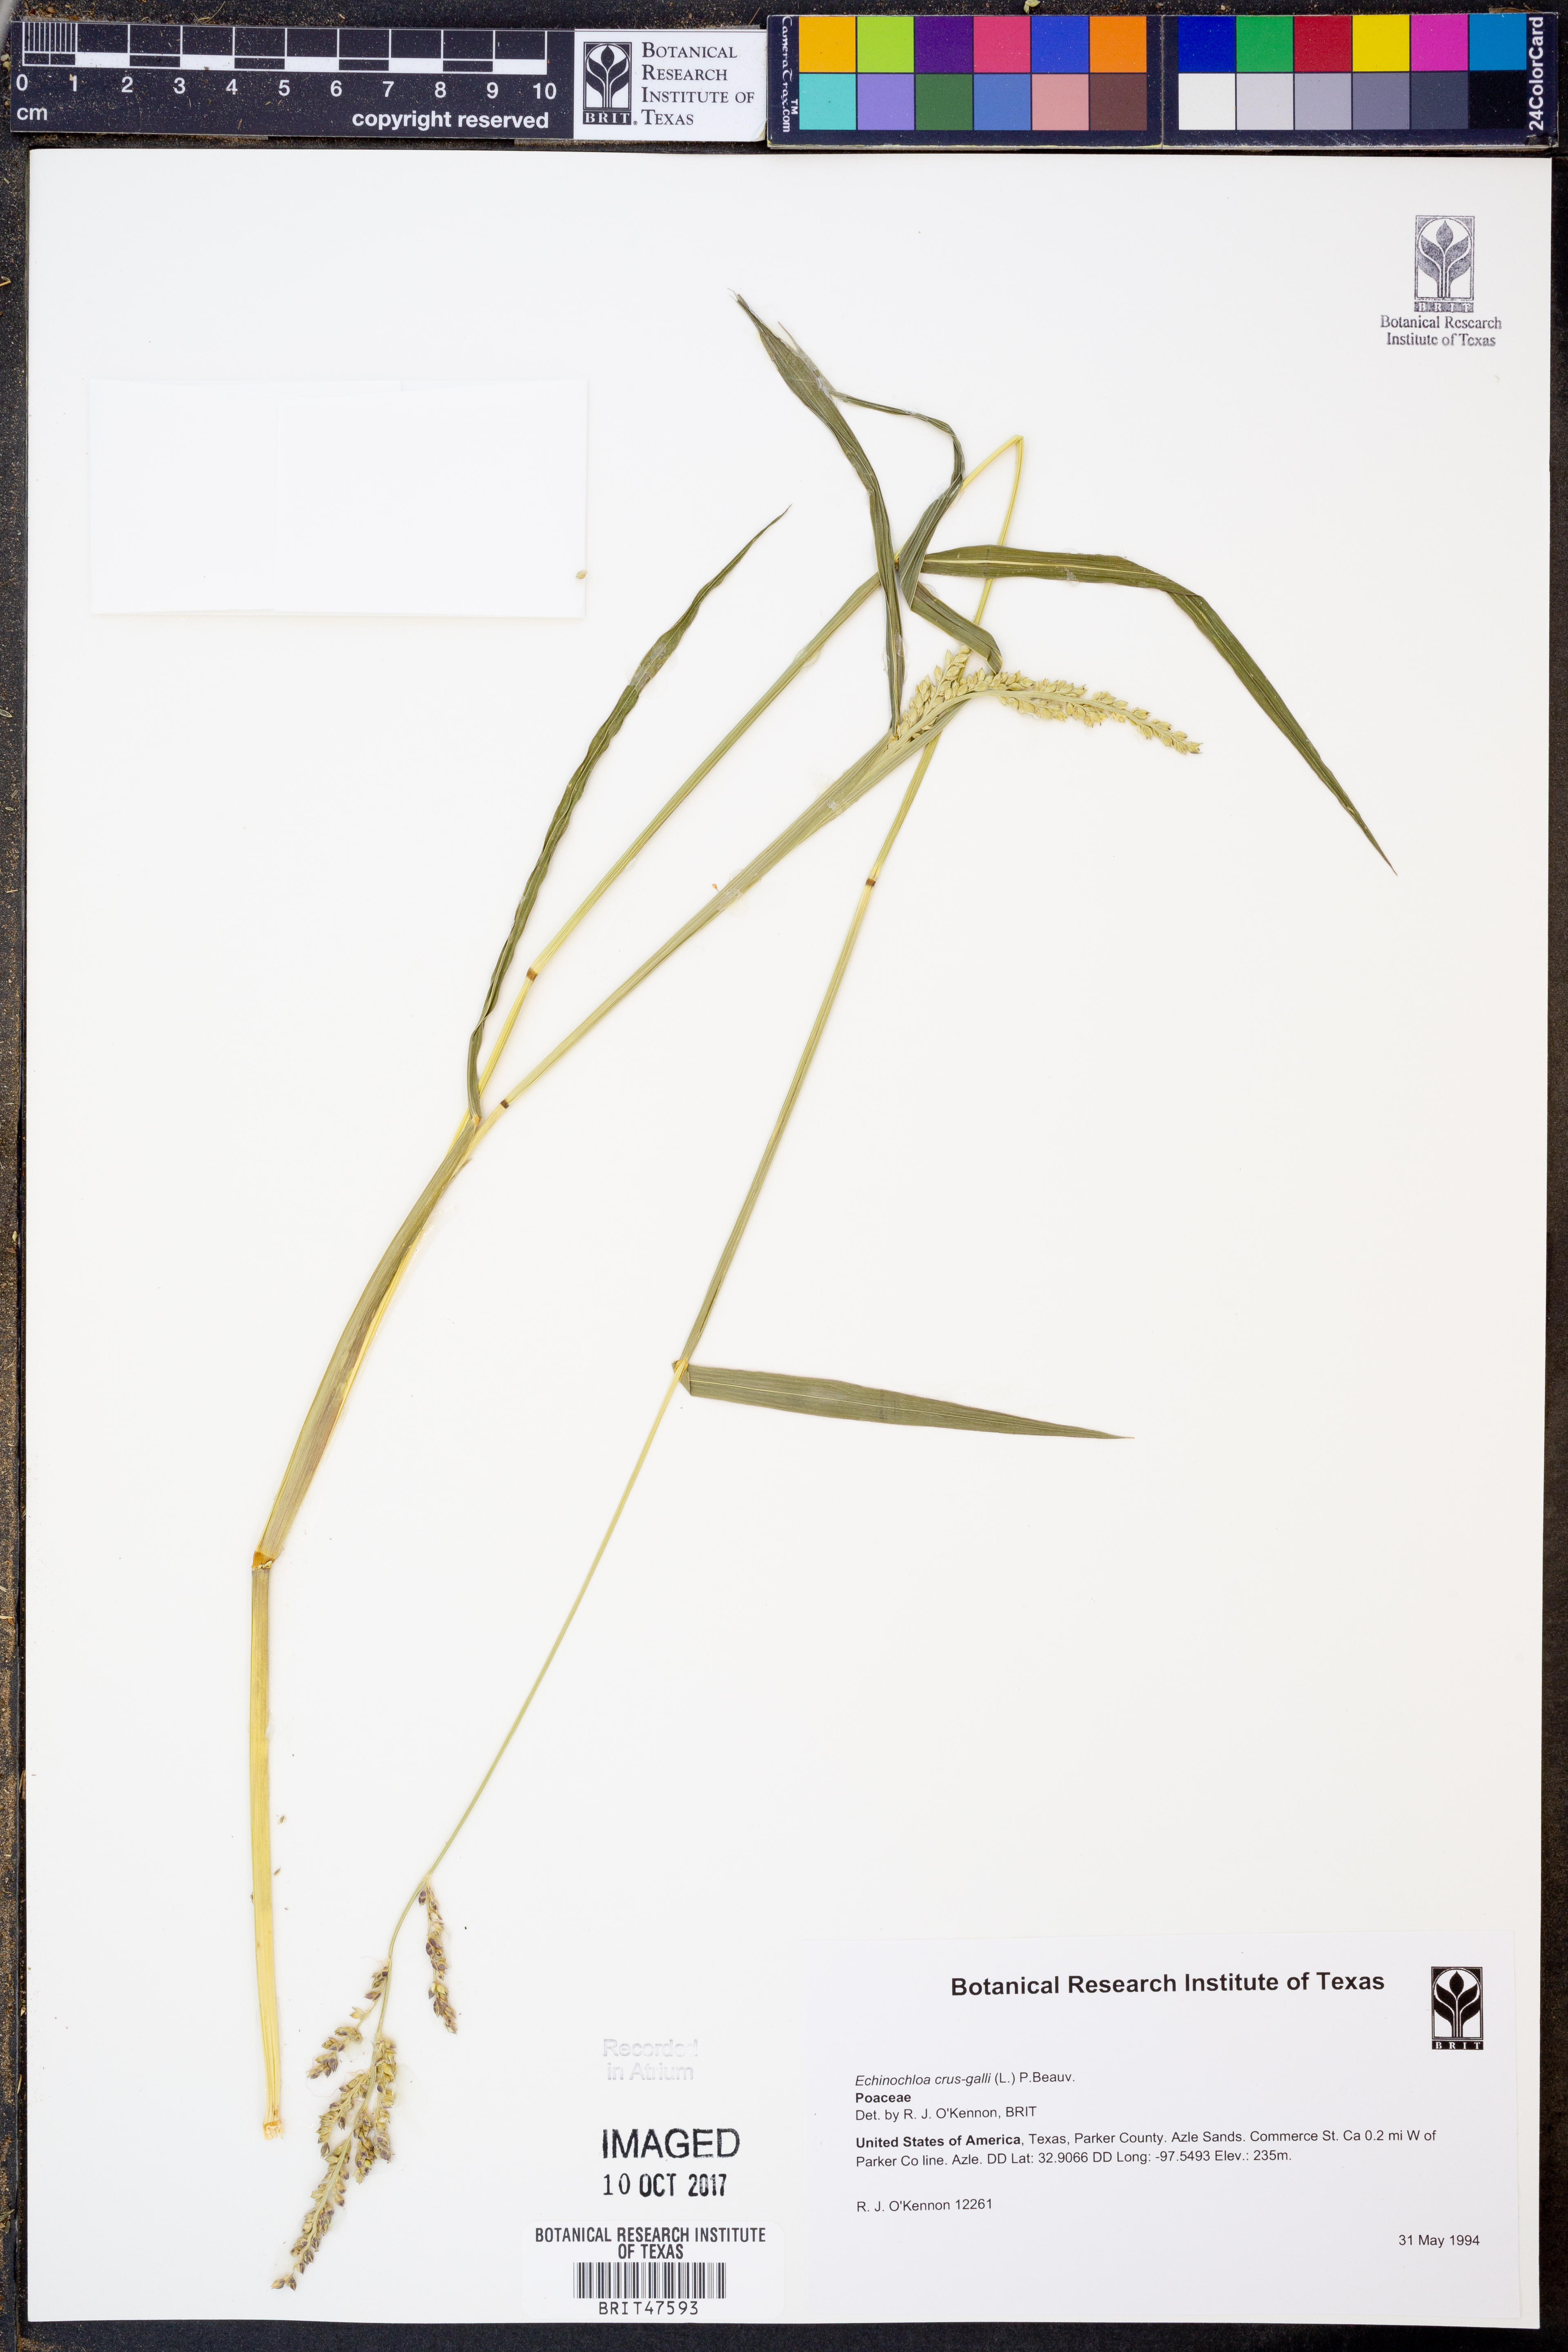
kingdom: Plantae
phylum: Tracheophyta
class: Liliopsida
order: Poales
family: Poaceae
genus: Echinochloa
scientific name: Echinochloa crus-galli
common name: Cockspur
